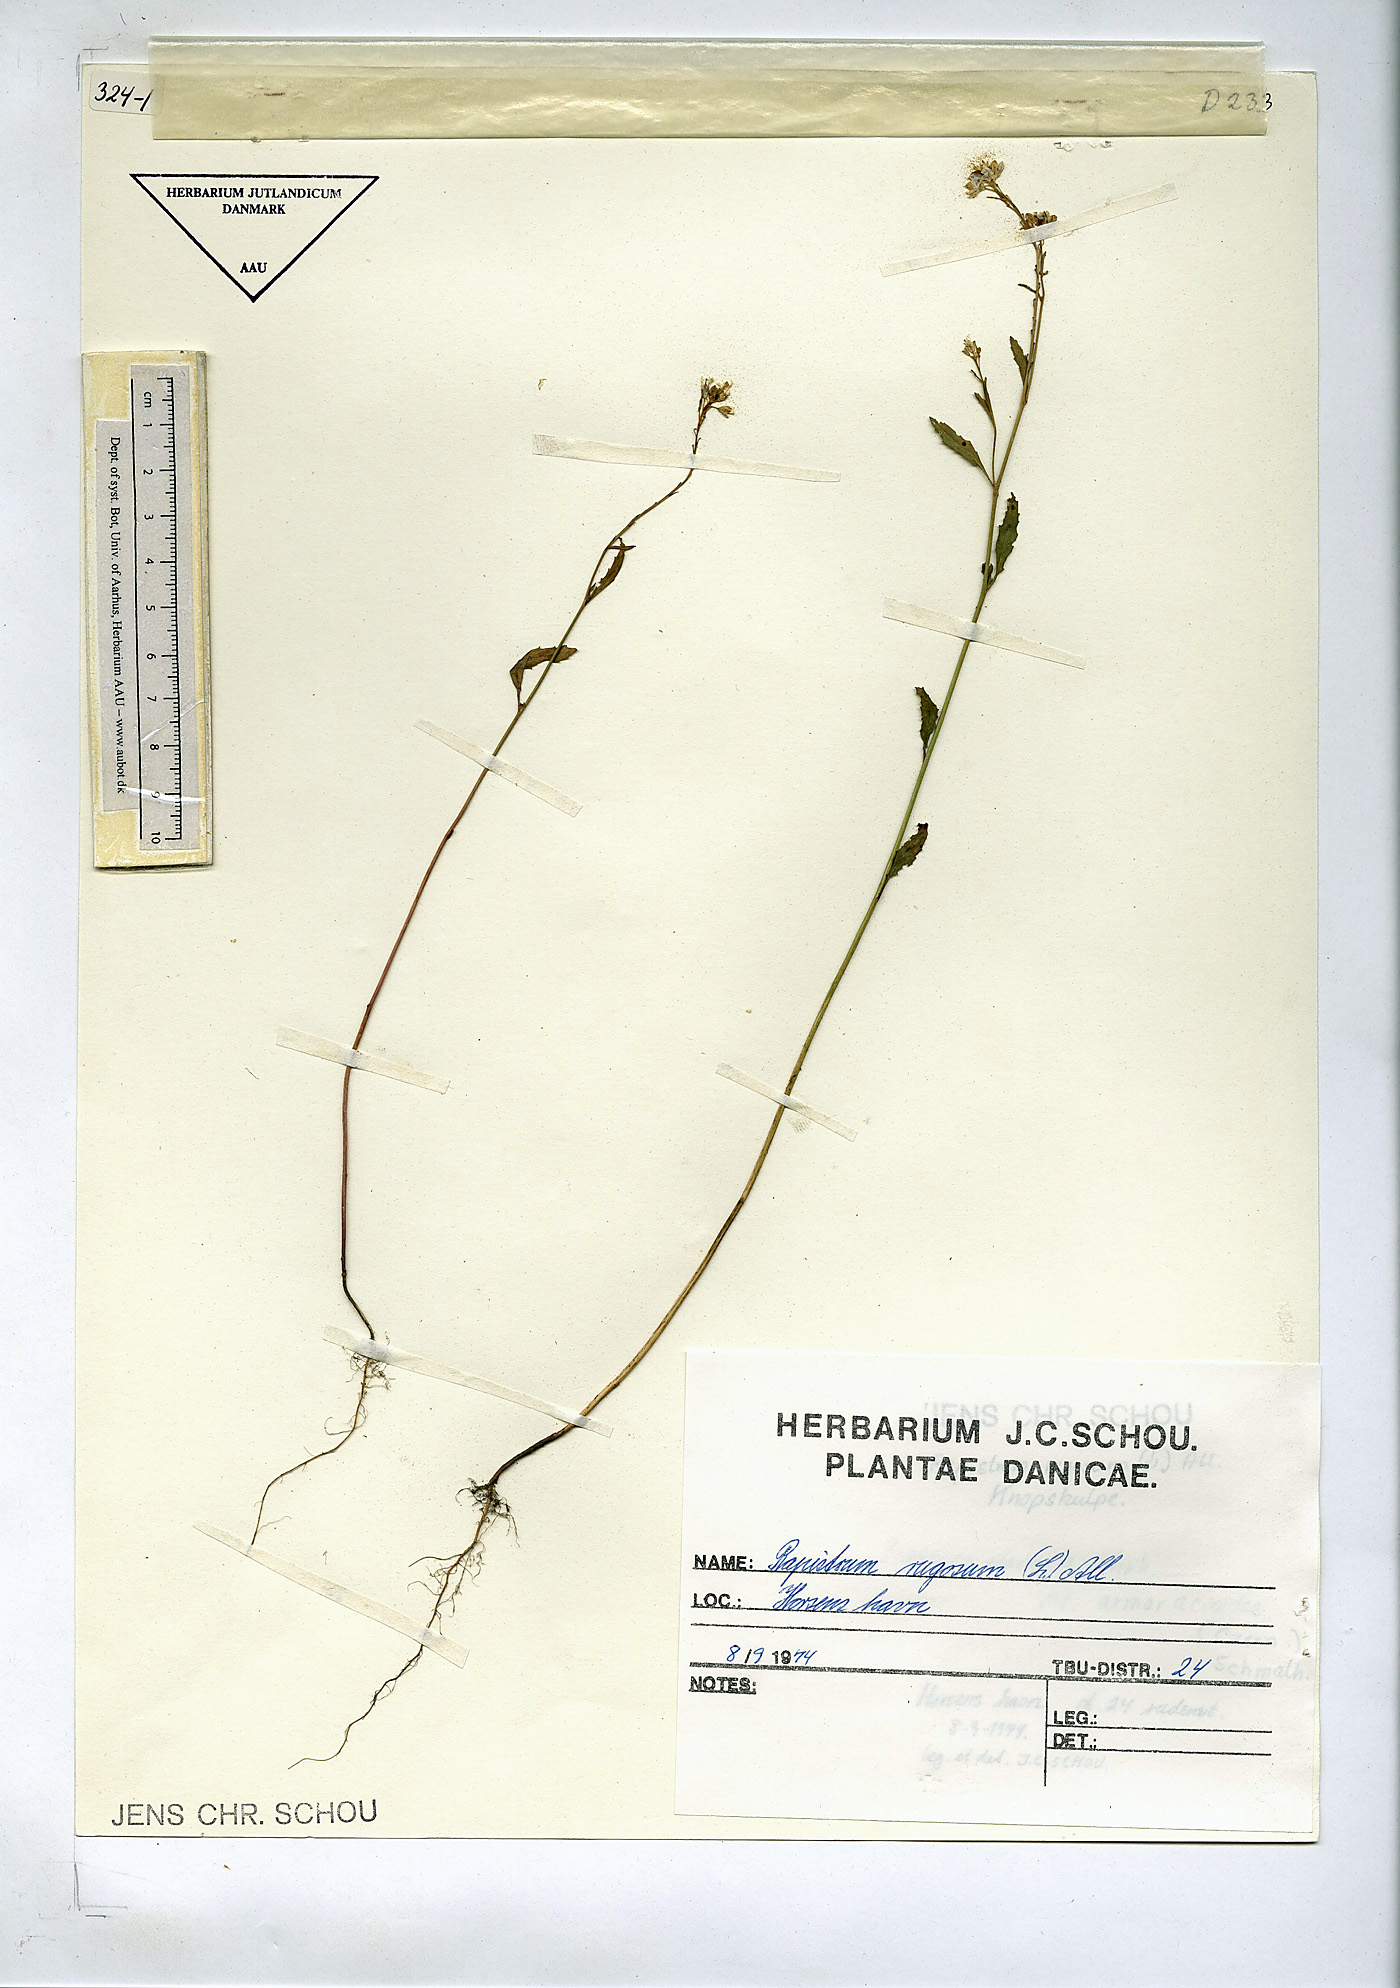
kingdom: Plantae
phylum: Tracheophyta
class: Magnoliopsida
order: Brassicales
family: Brassicaceae
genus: Rapistrum
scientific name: Rapistrum rugosum
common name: Annual bastardcabbage
